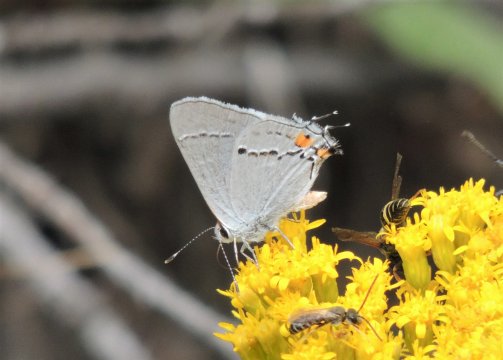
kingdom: Animalia
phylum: Arthropoda
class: Insecta
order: Lepidoptera
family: Lycaenidae
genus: Strymon
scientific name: Strymon melinus
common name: Gray Hairstreak
